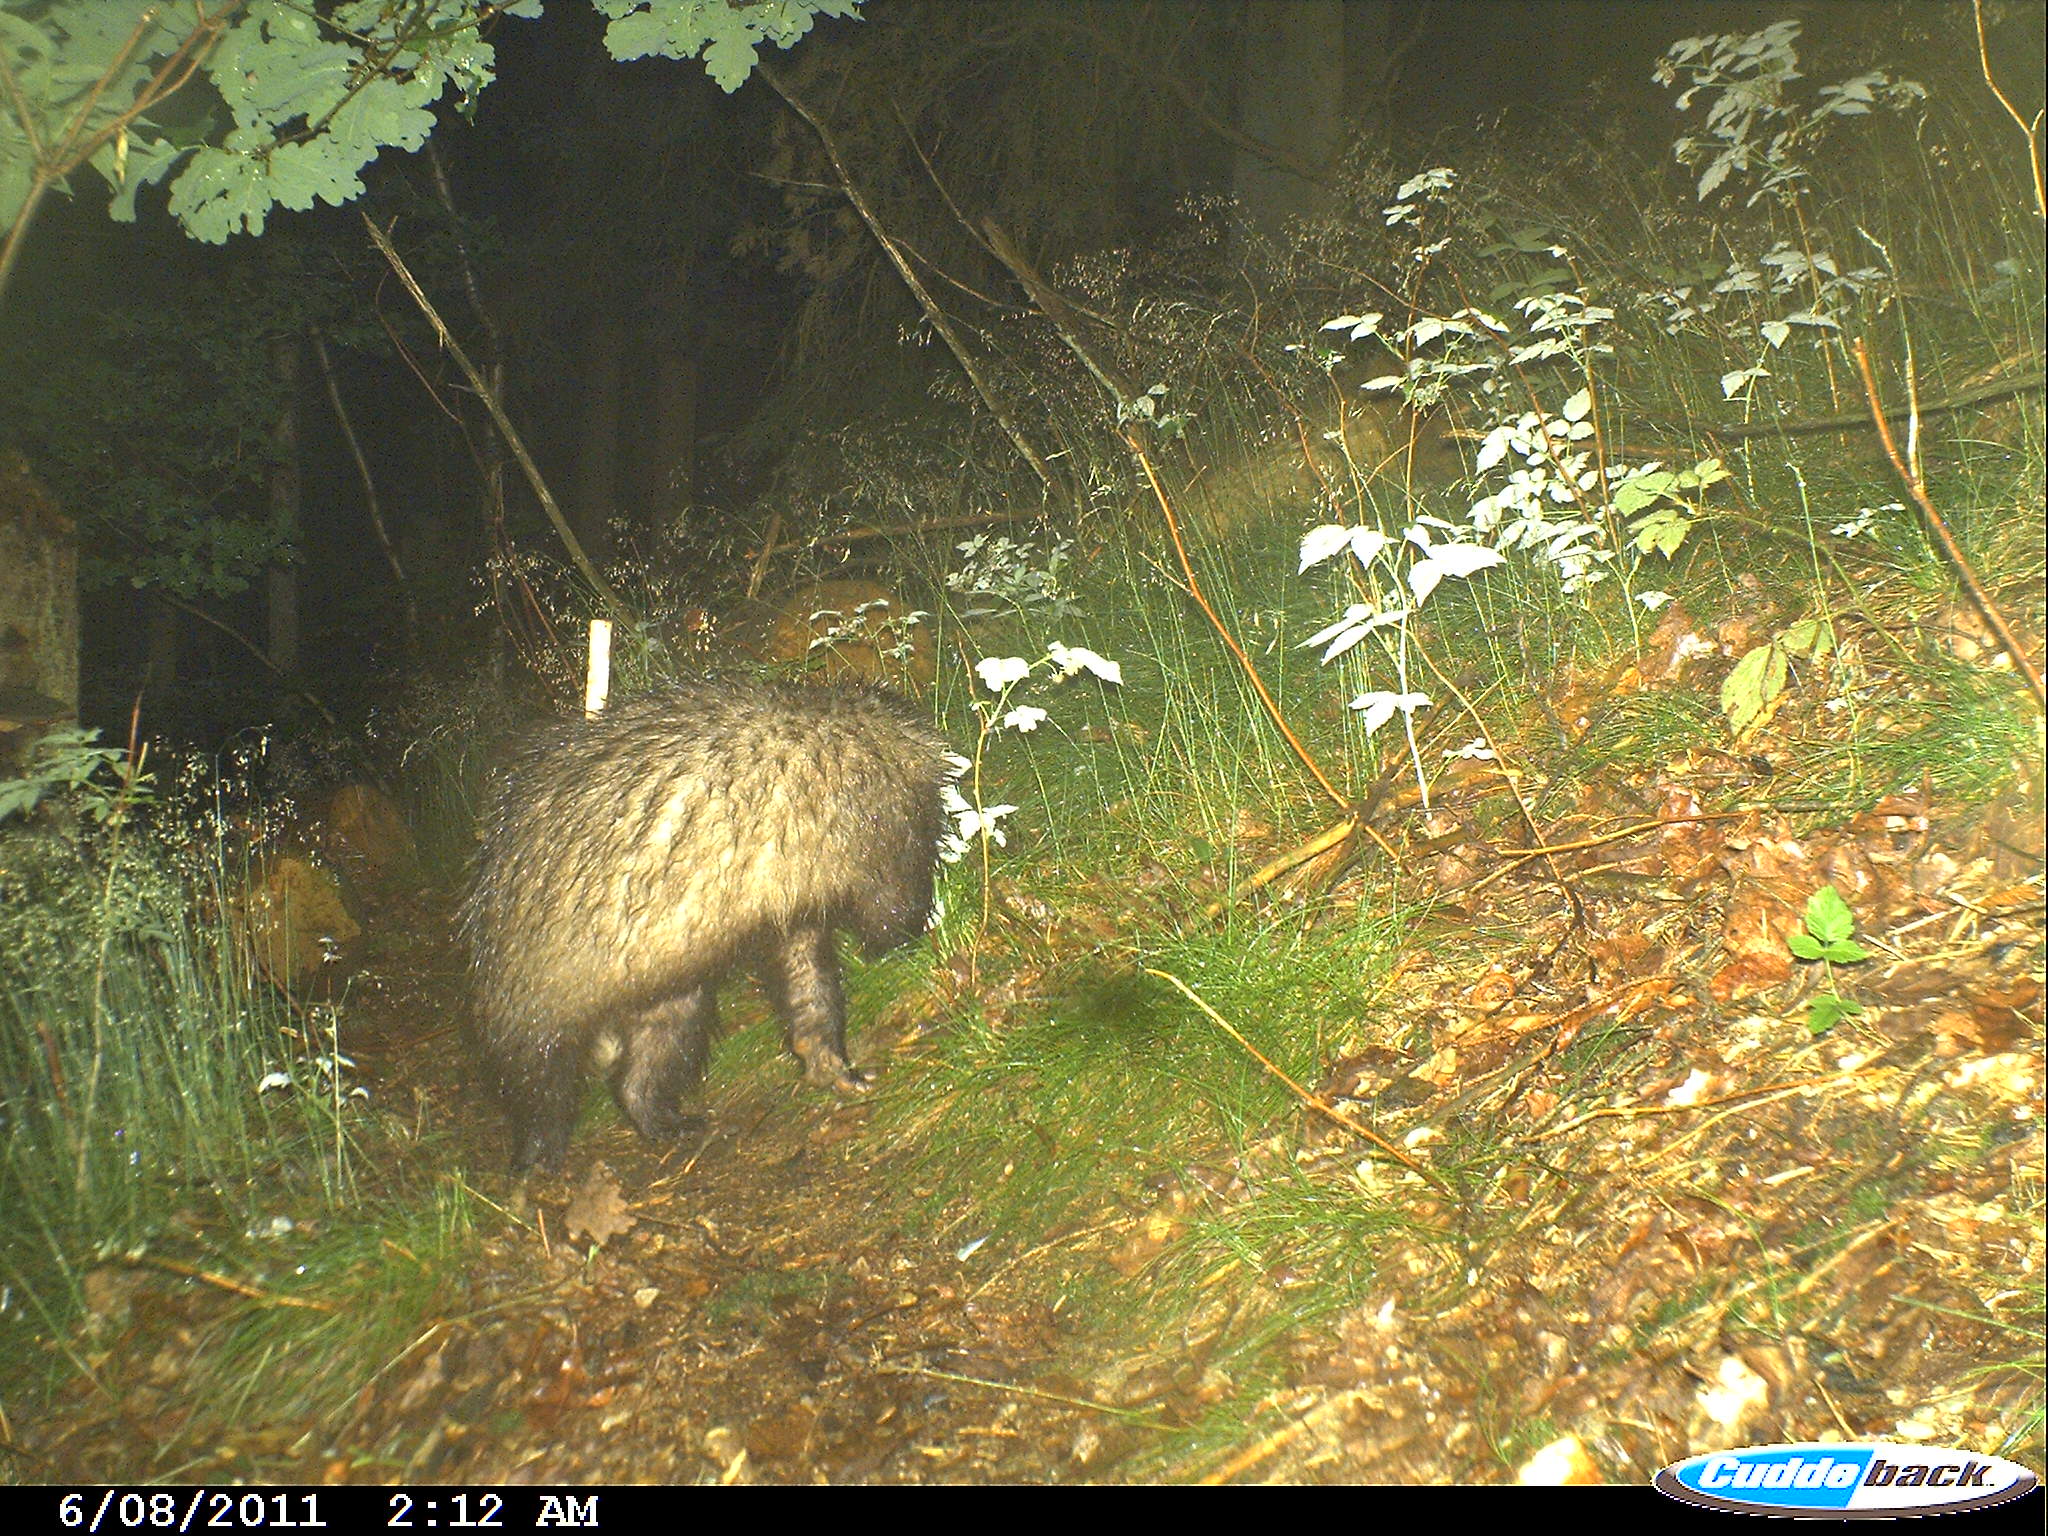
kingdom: Animalia
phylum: Chordata
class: Mammalia
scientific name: Mammalia
